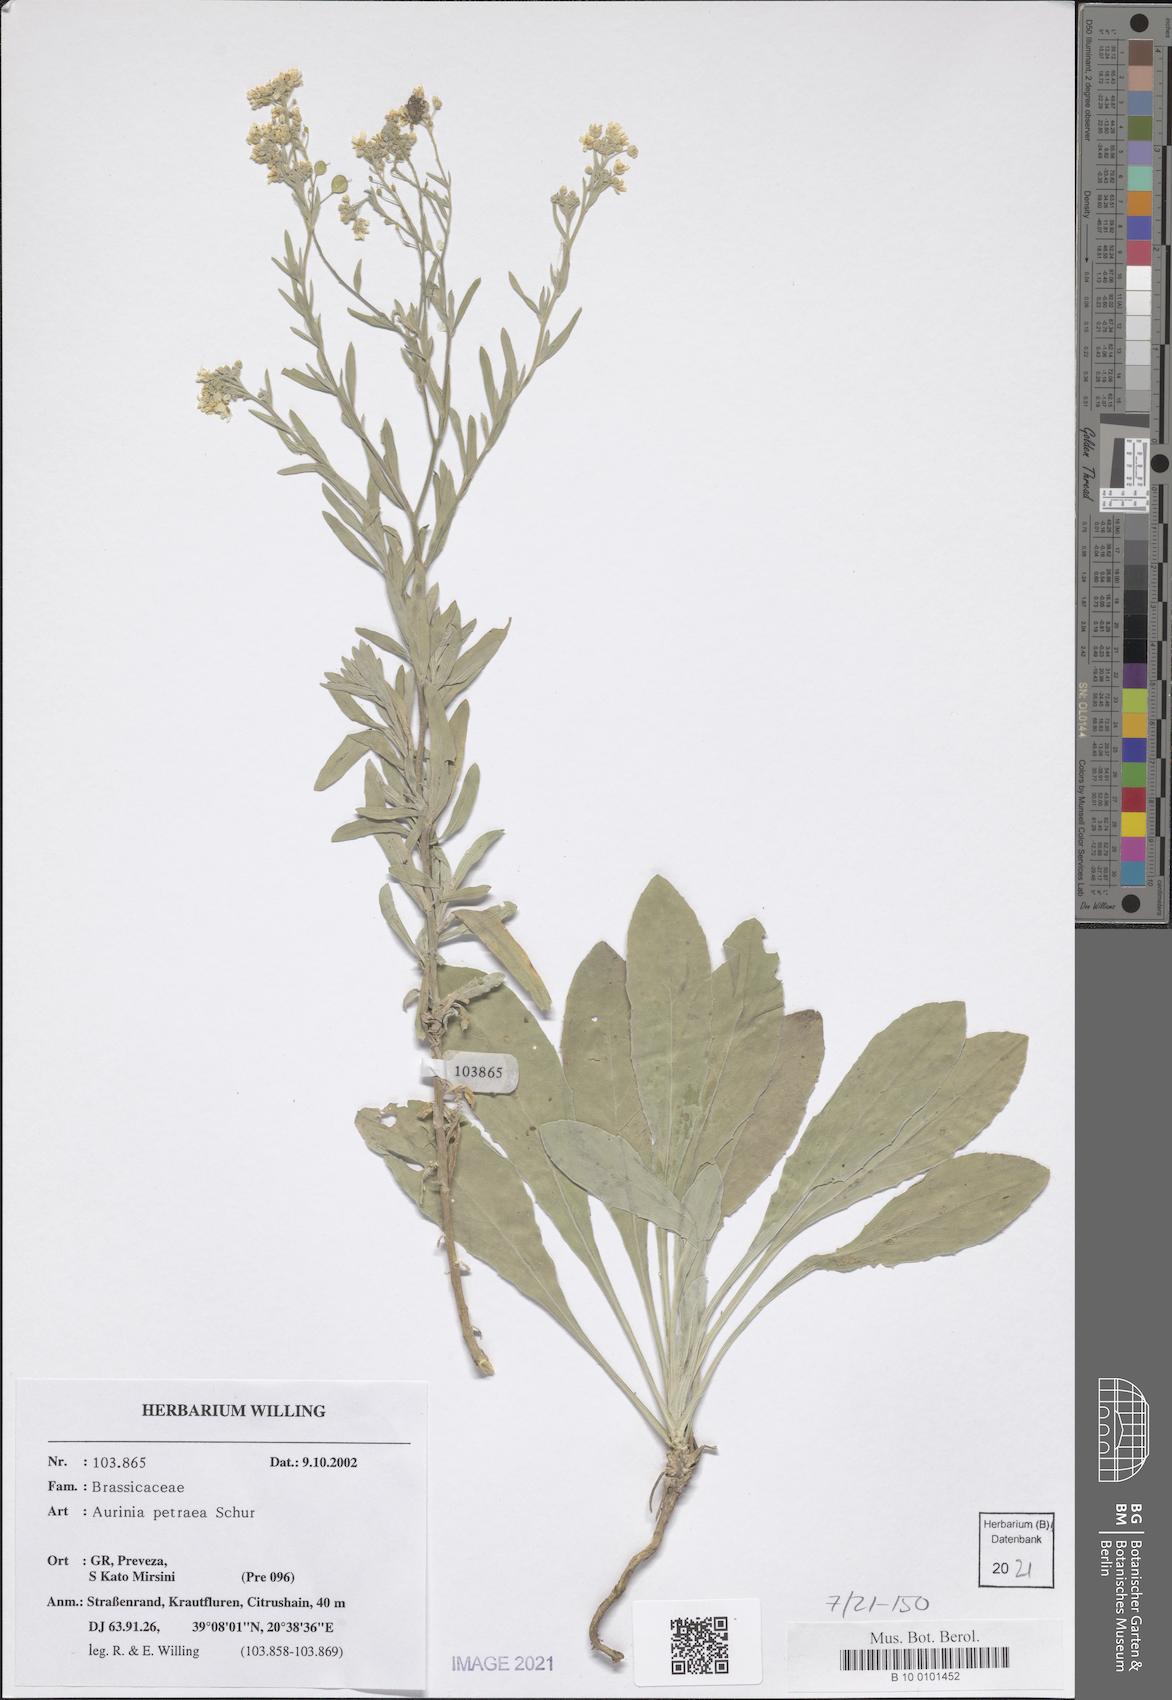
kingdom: Plantae
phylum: Tracheophyta
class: Magnoliopsida
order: Brassicales
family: Brassicaceae
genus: Aurinia
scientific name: Aurinia petraea
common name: Goldentuft
